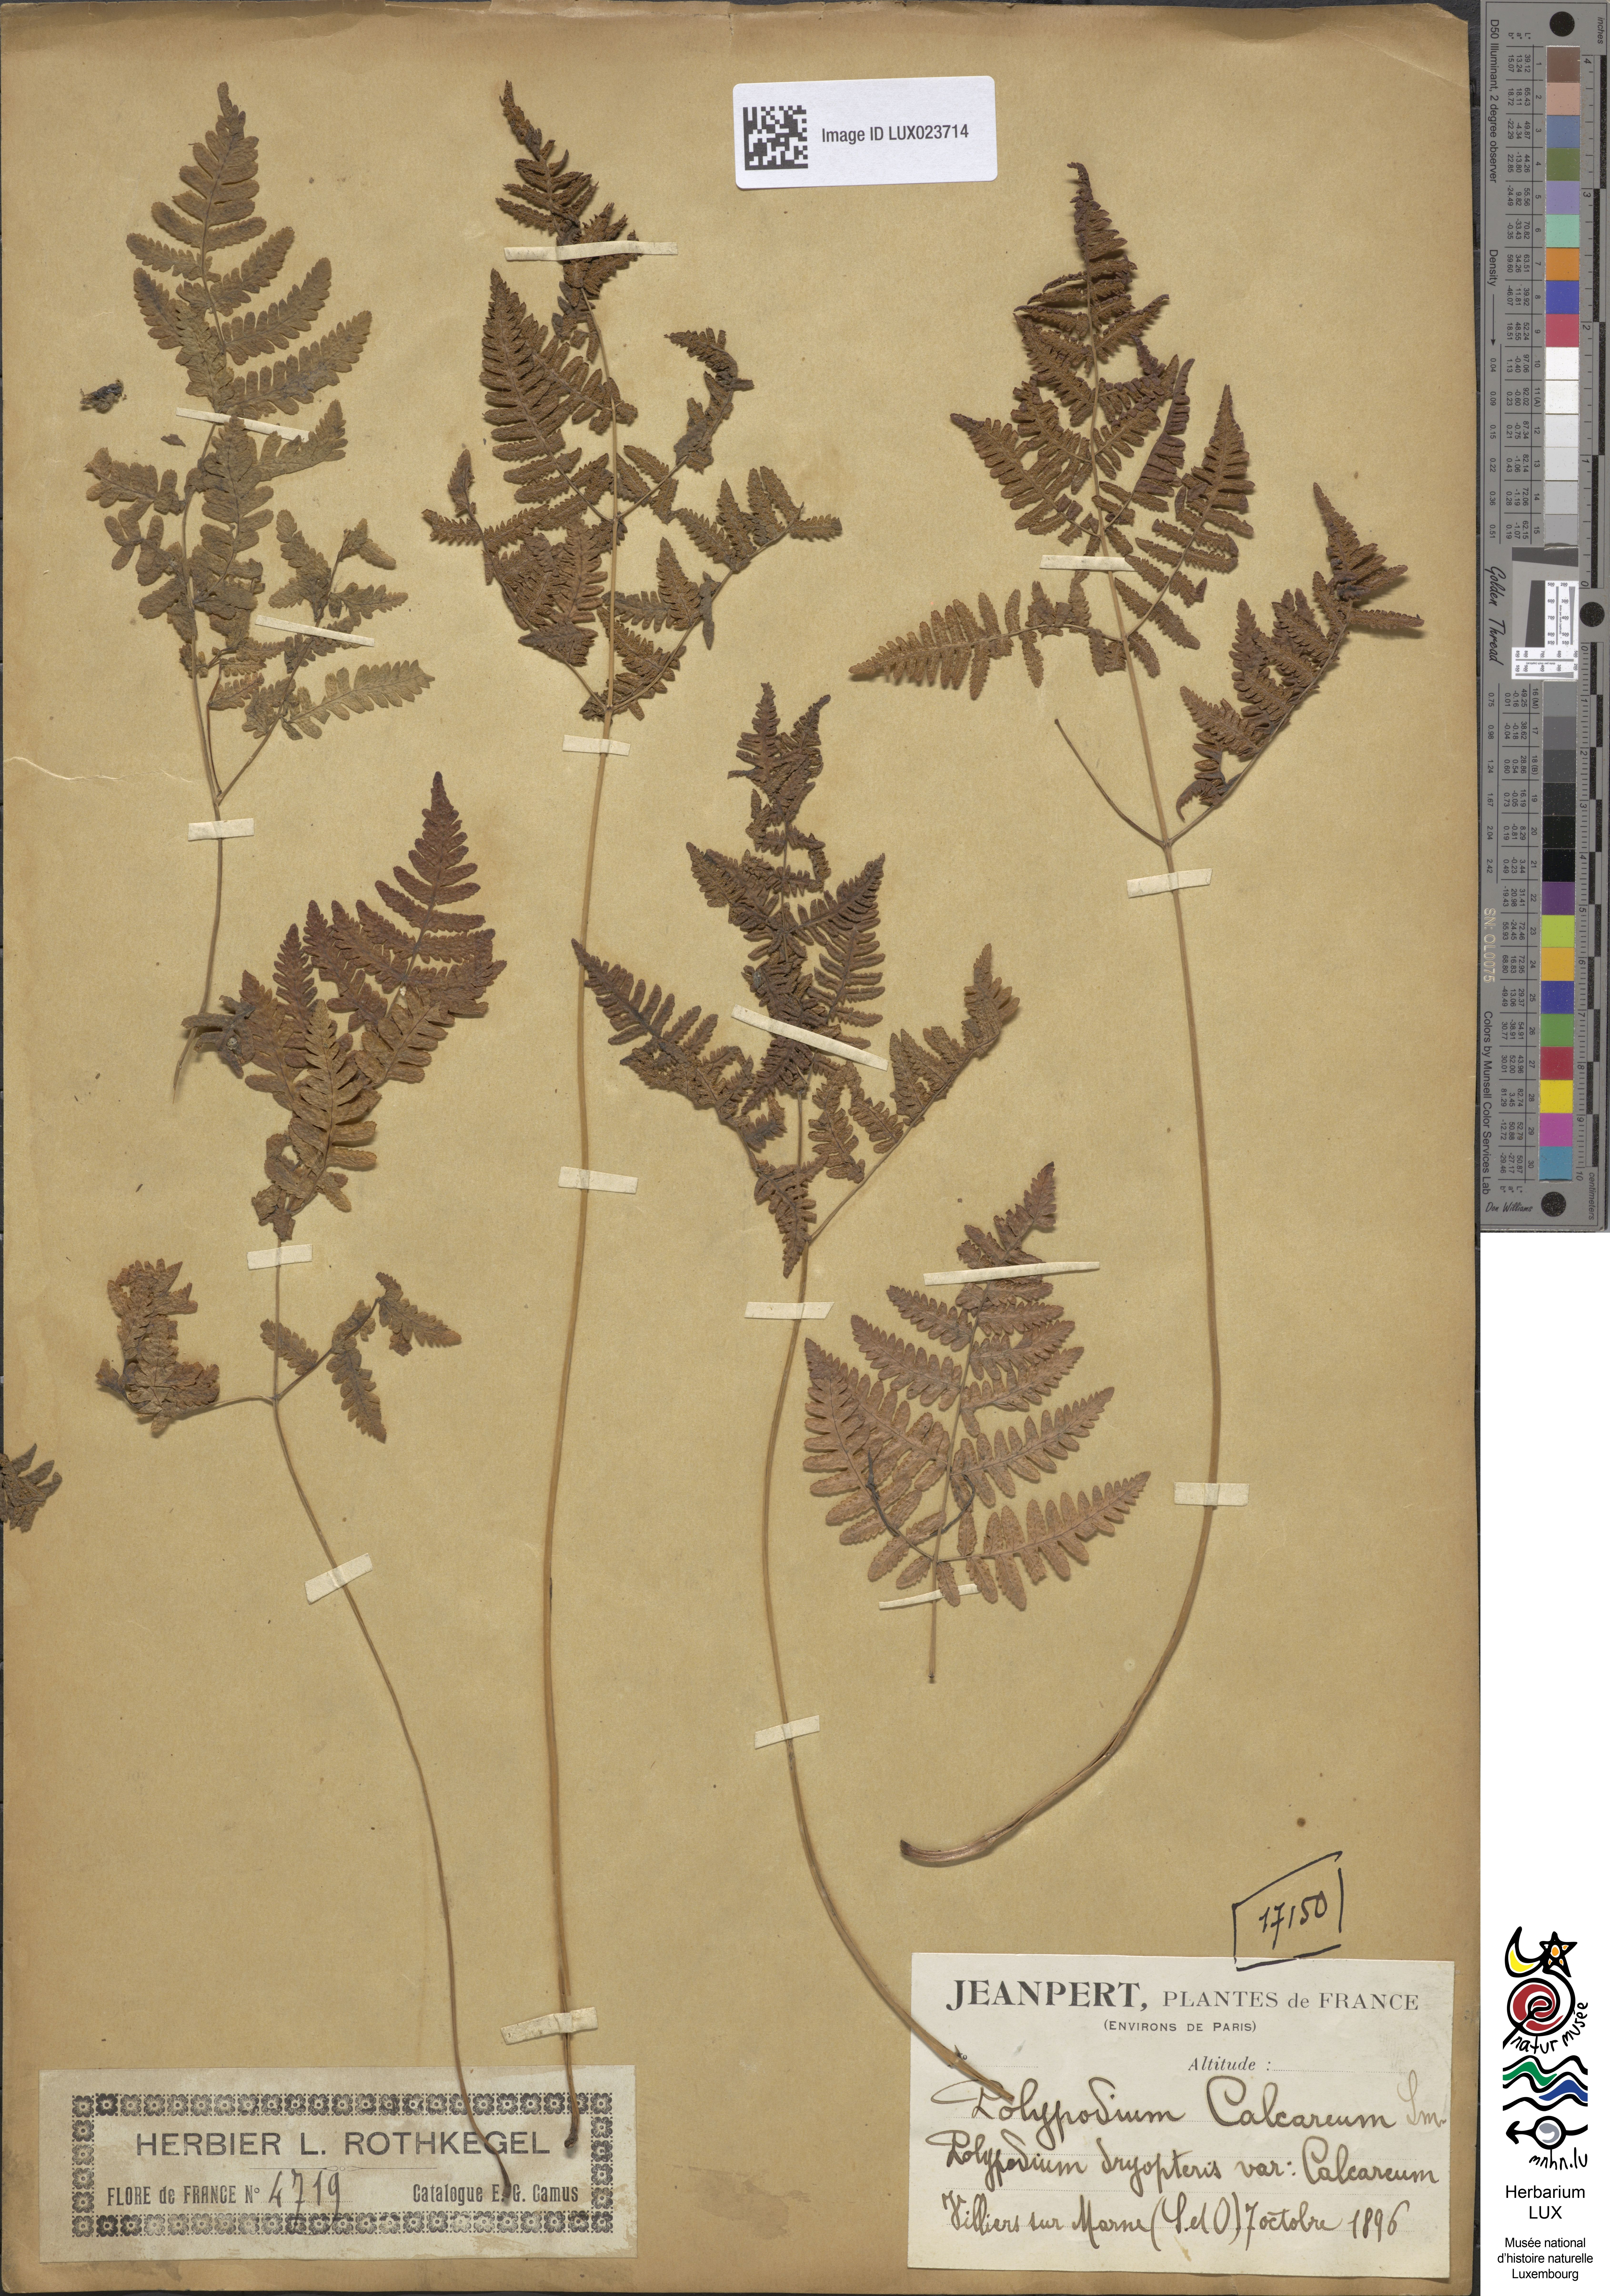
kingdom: Plantae
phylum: Tracheophyta
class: Polypodiopsida
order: Polypodiales
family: Cystopteridaceae
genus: Gymnocarpium
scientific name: Gymnocarpium robertianum
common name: Limestone fern
